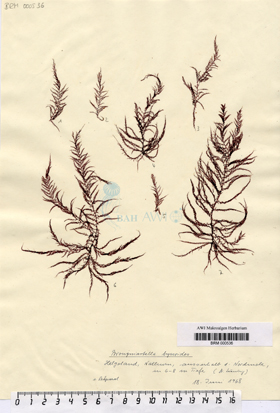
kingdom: Plantae
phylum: Rhodophyta
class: Florideophyceae
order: Ceramiales
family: Rhodomelaceae
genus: Vertebrata
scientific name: Vertebrata byssoides
